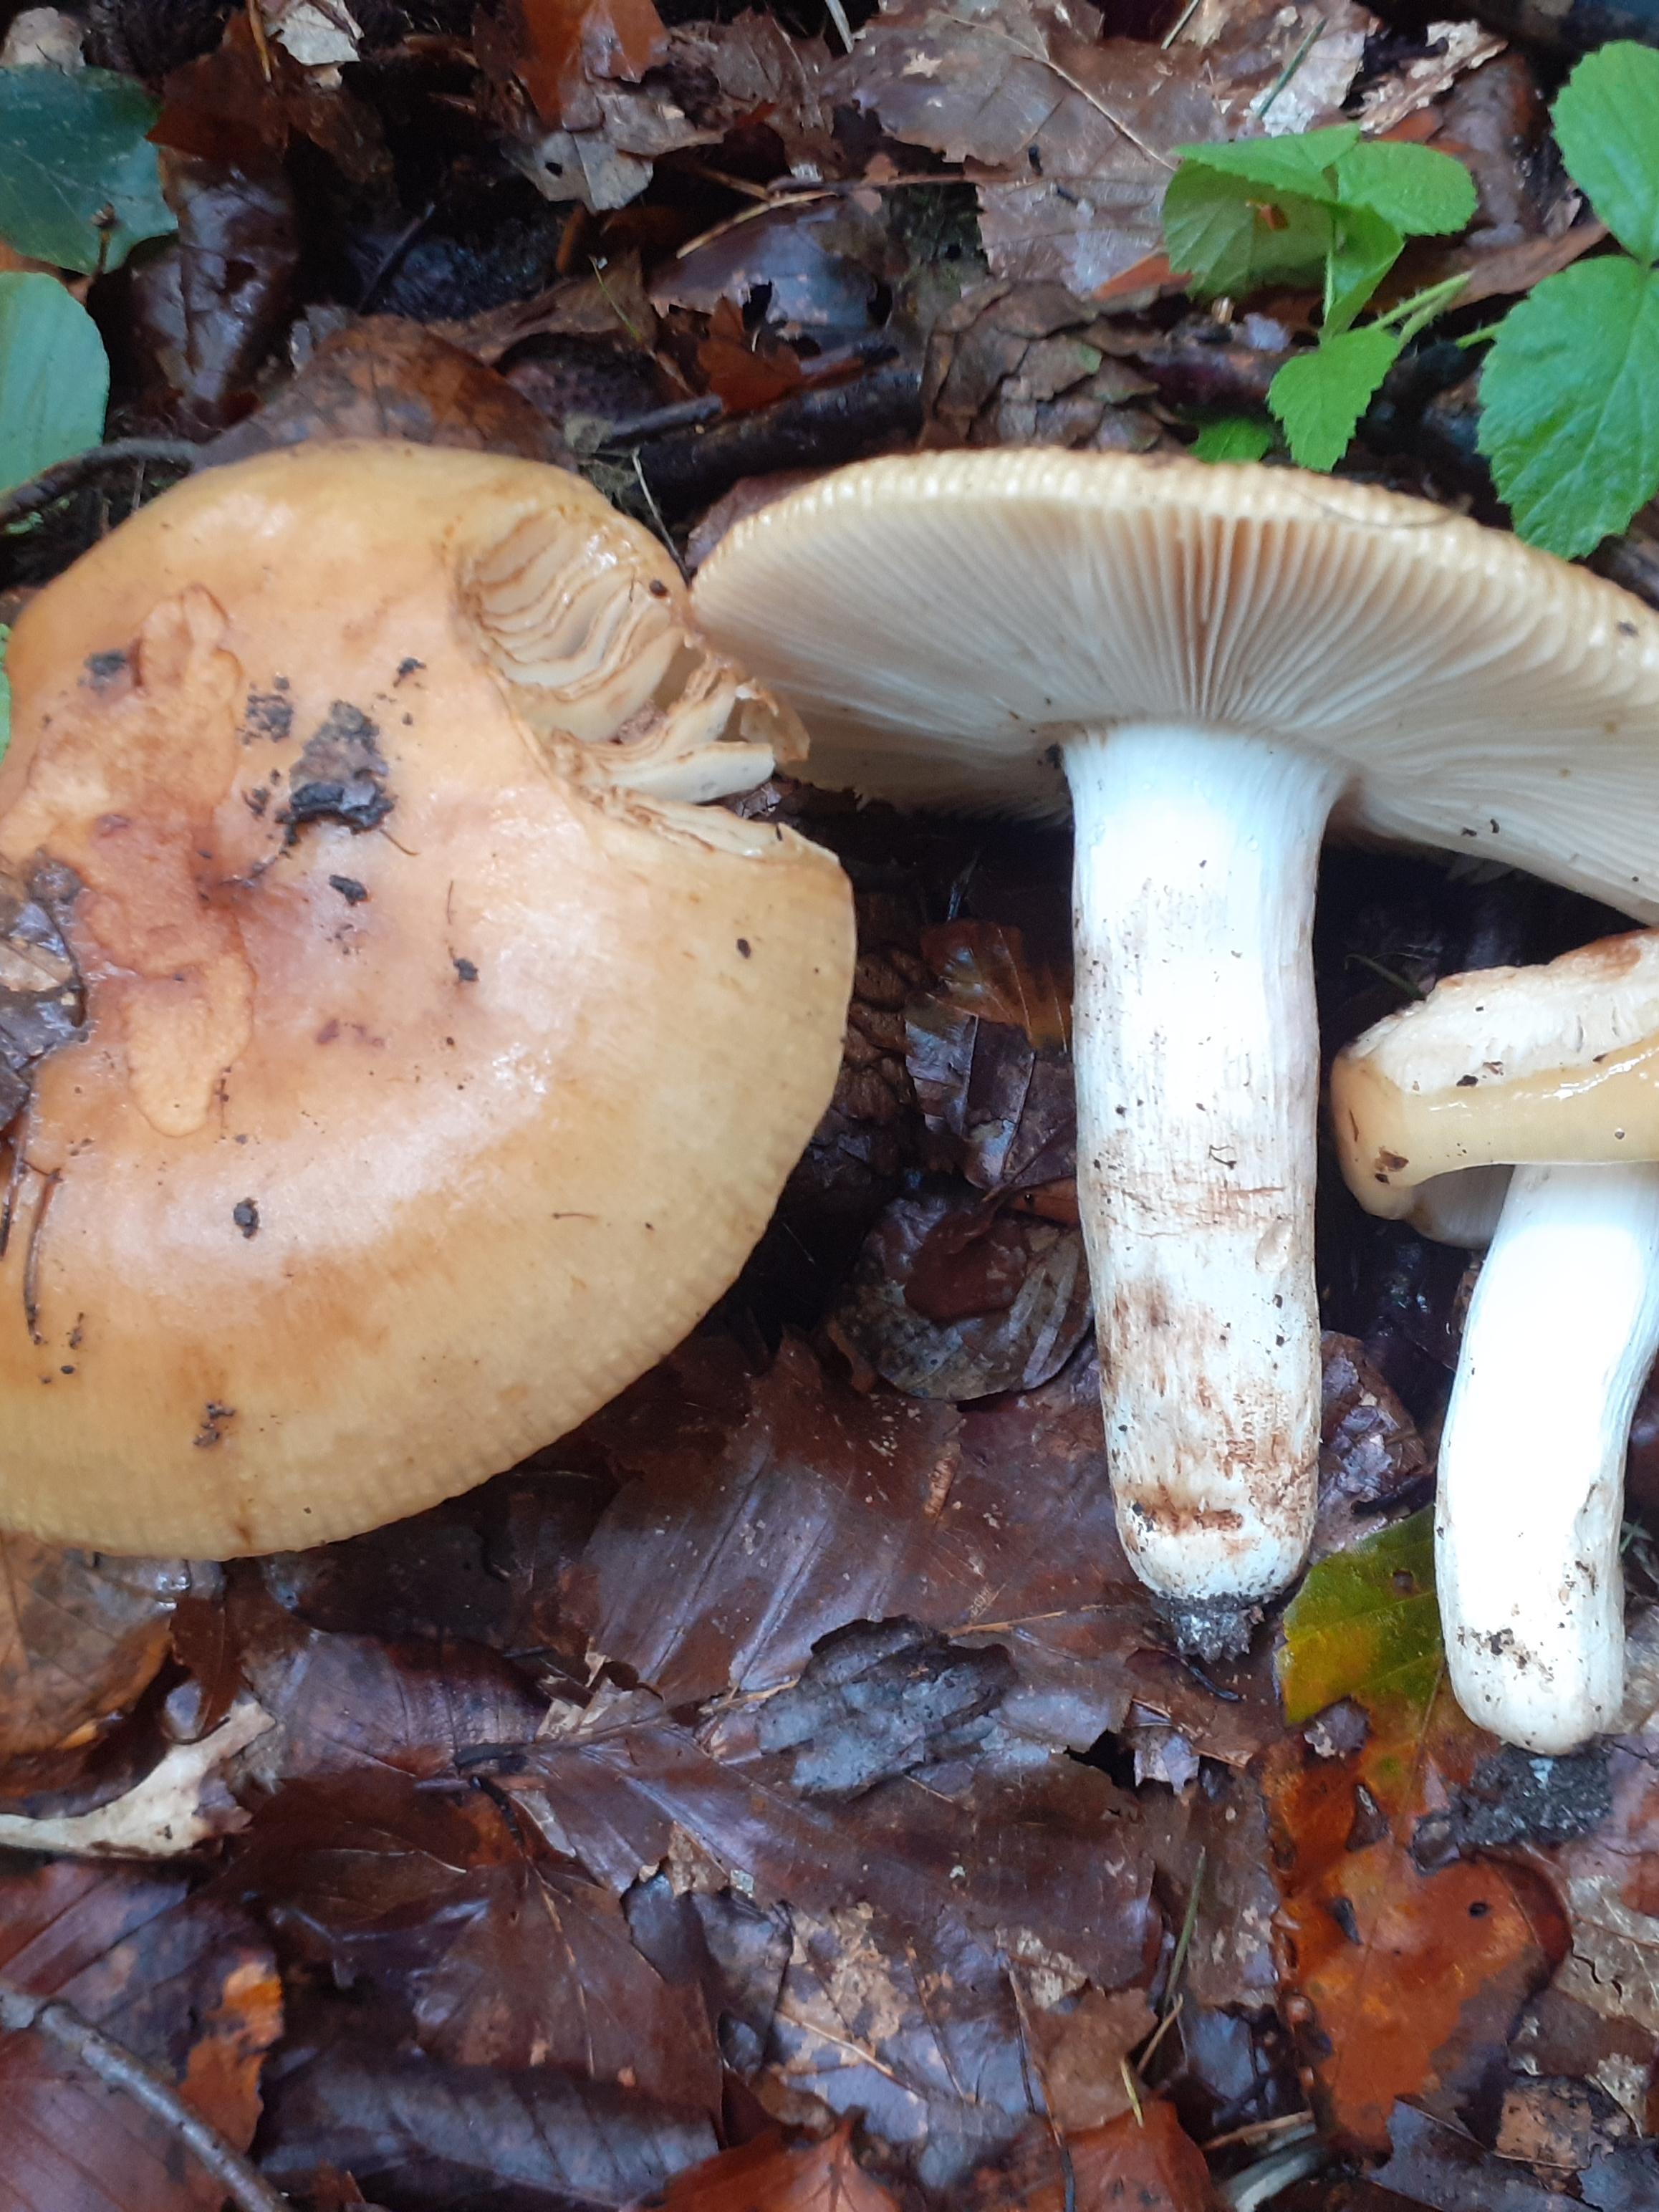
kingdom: Fungi
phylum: Basidiomycota
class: Agaricomycetes
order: Russulales
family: Russulaceae
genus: Russula
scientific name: Russula grata
